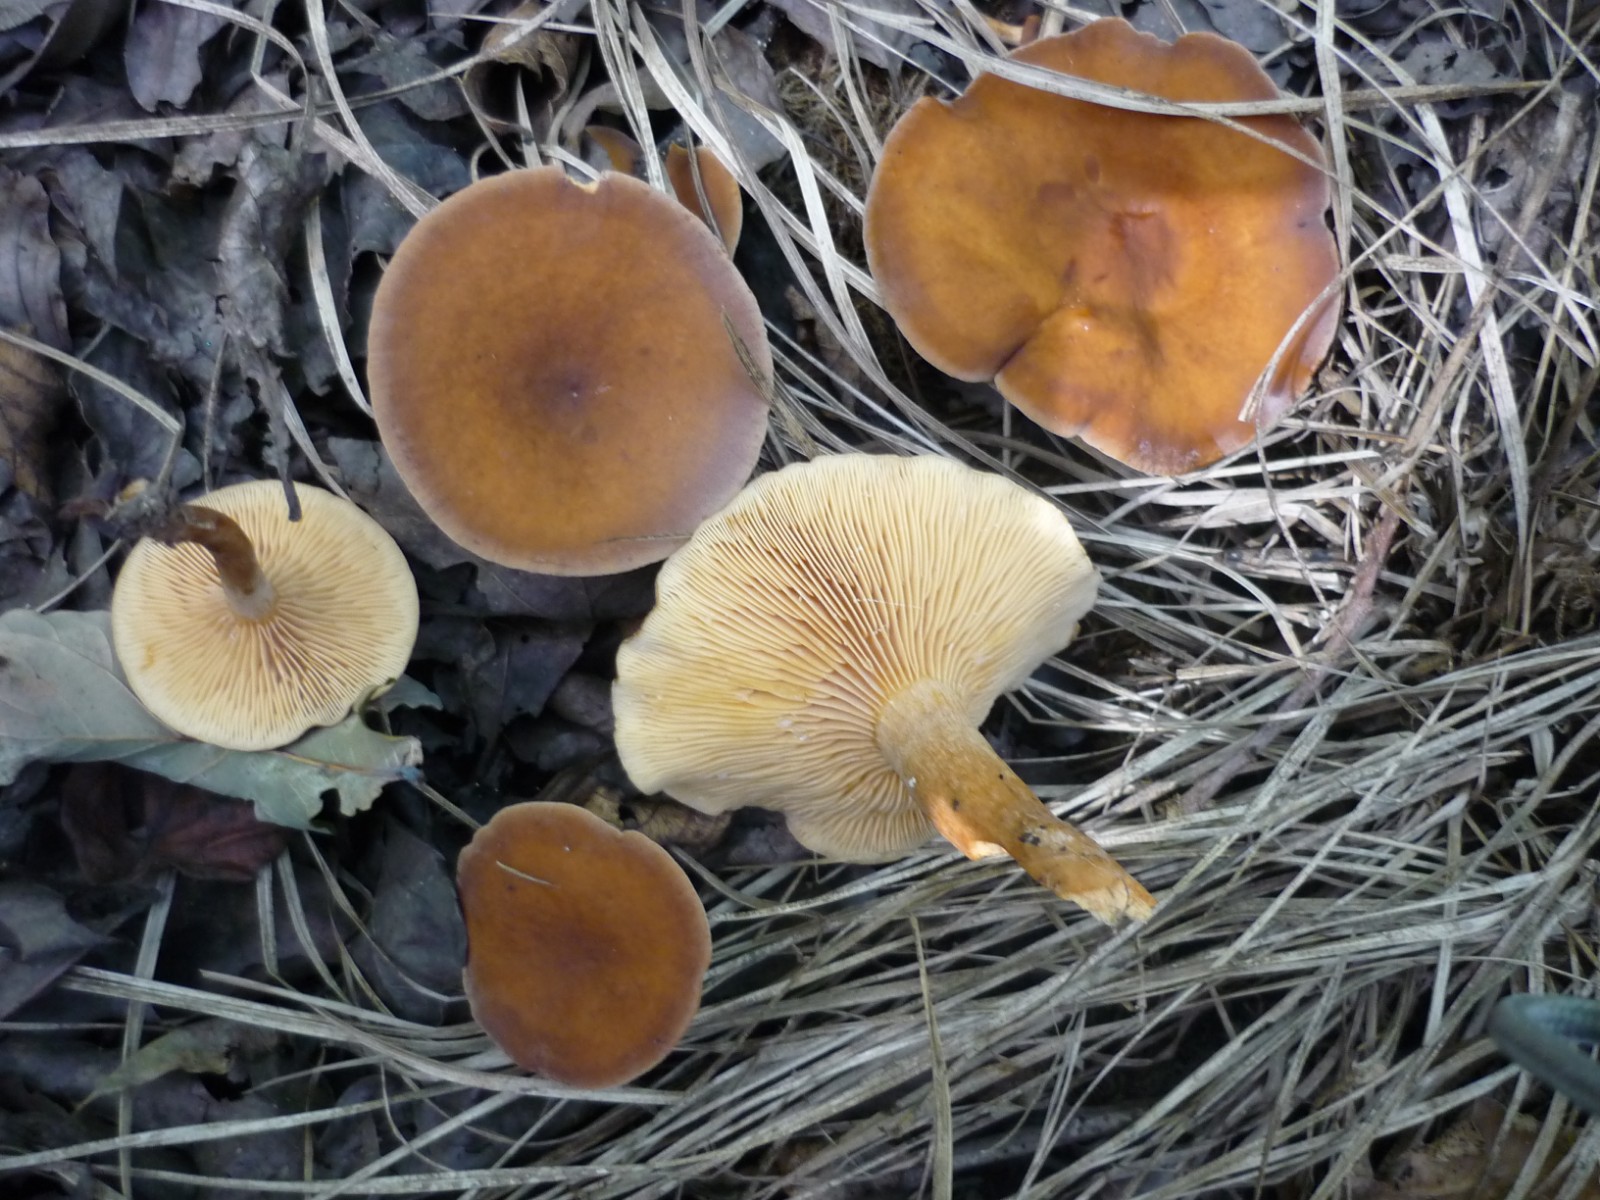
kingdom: Fungi
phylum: Basidiomycota
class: Agaricomycetes
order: Russulales
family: Russulaceae
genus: Lactarius
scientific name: Lactarius serifluus
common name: tæge-mælkehat
